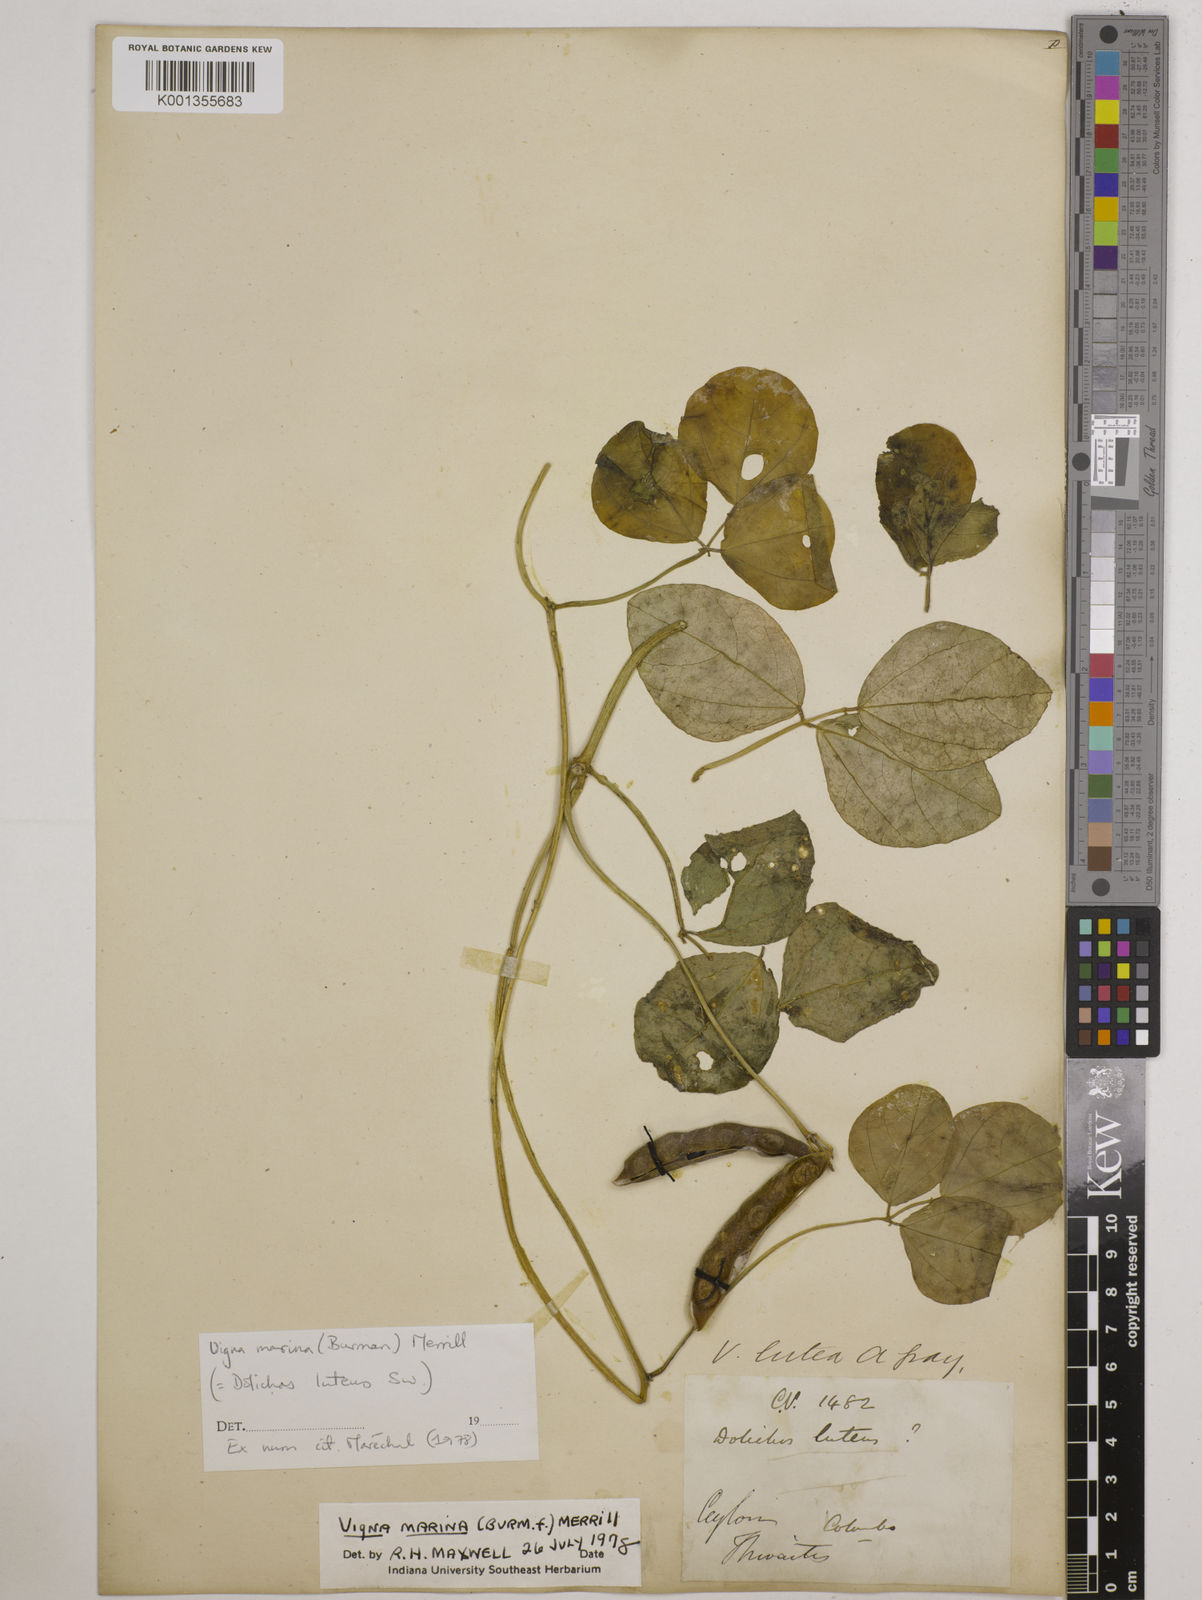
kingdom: Plantae
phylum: Tracheophyta
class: Magnoliopsida
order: Fabales
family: Fabaceae
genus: Vigna
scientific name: Vigna marina
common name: Dune-bean
